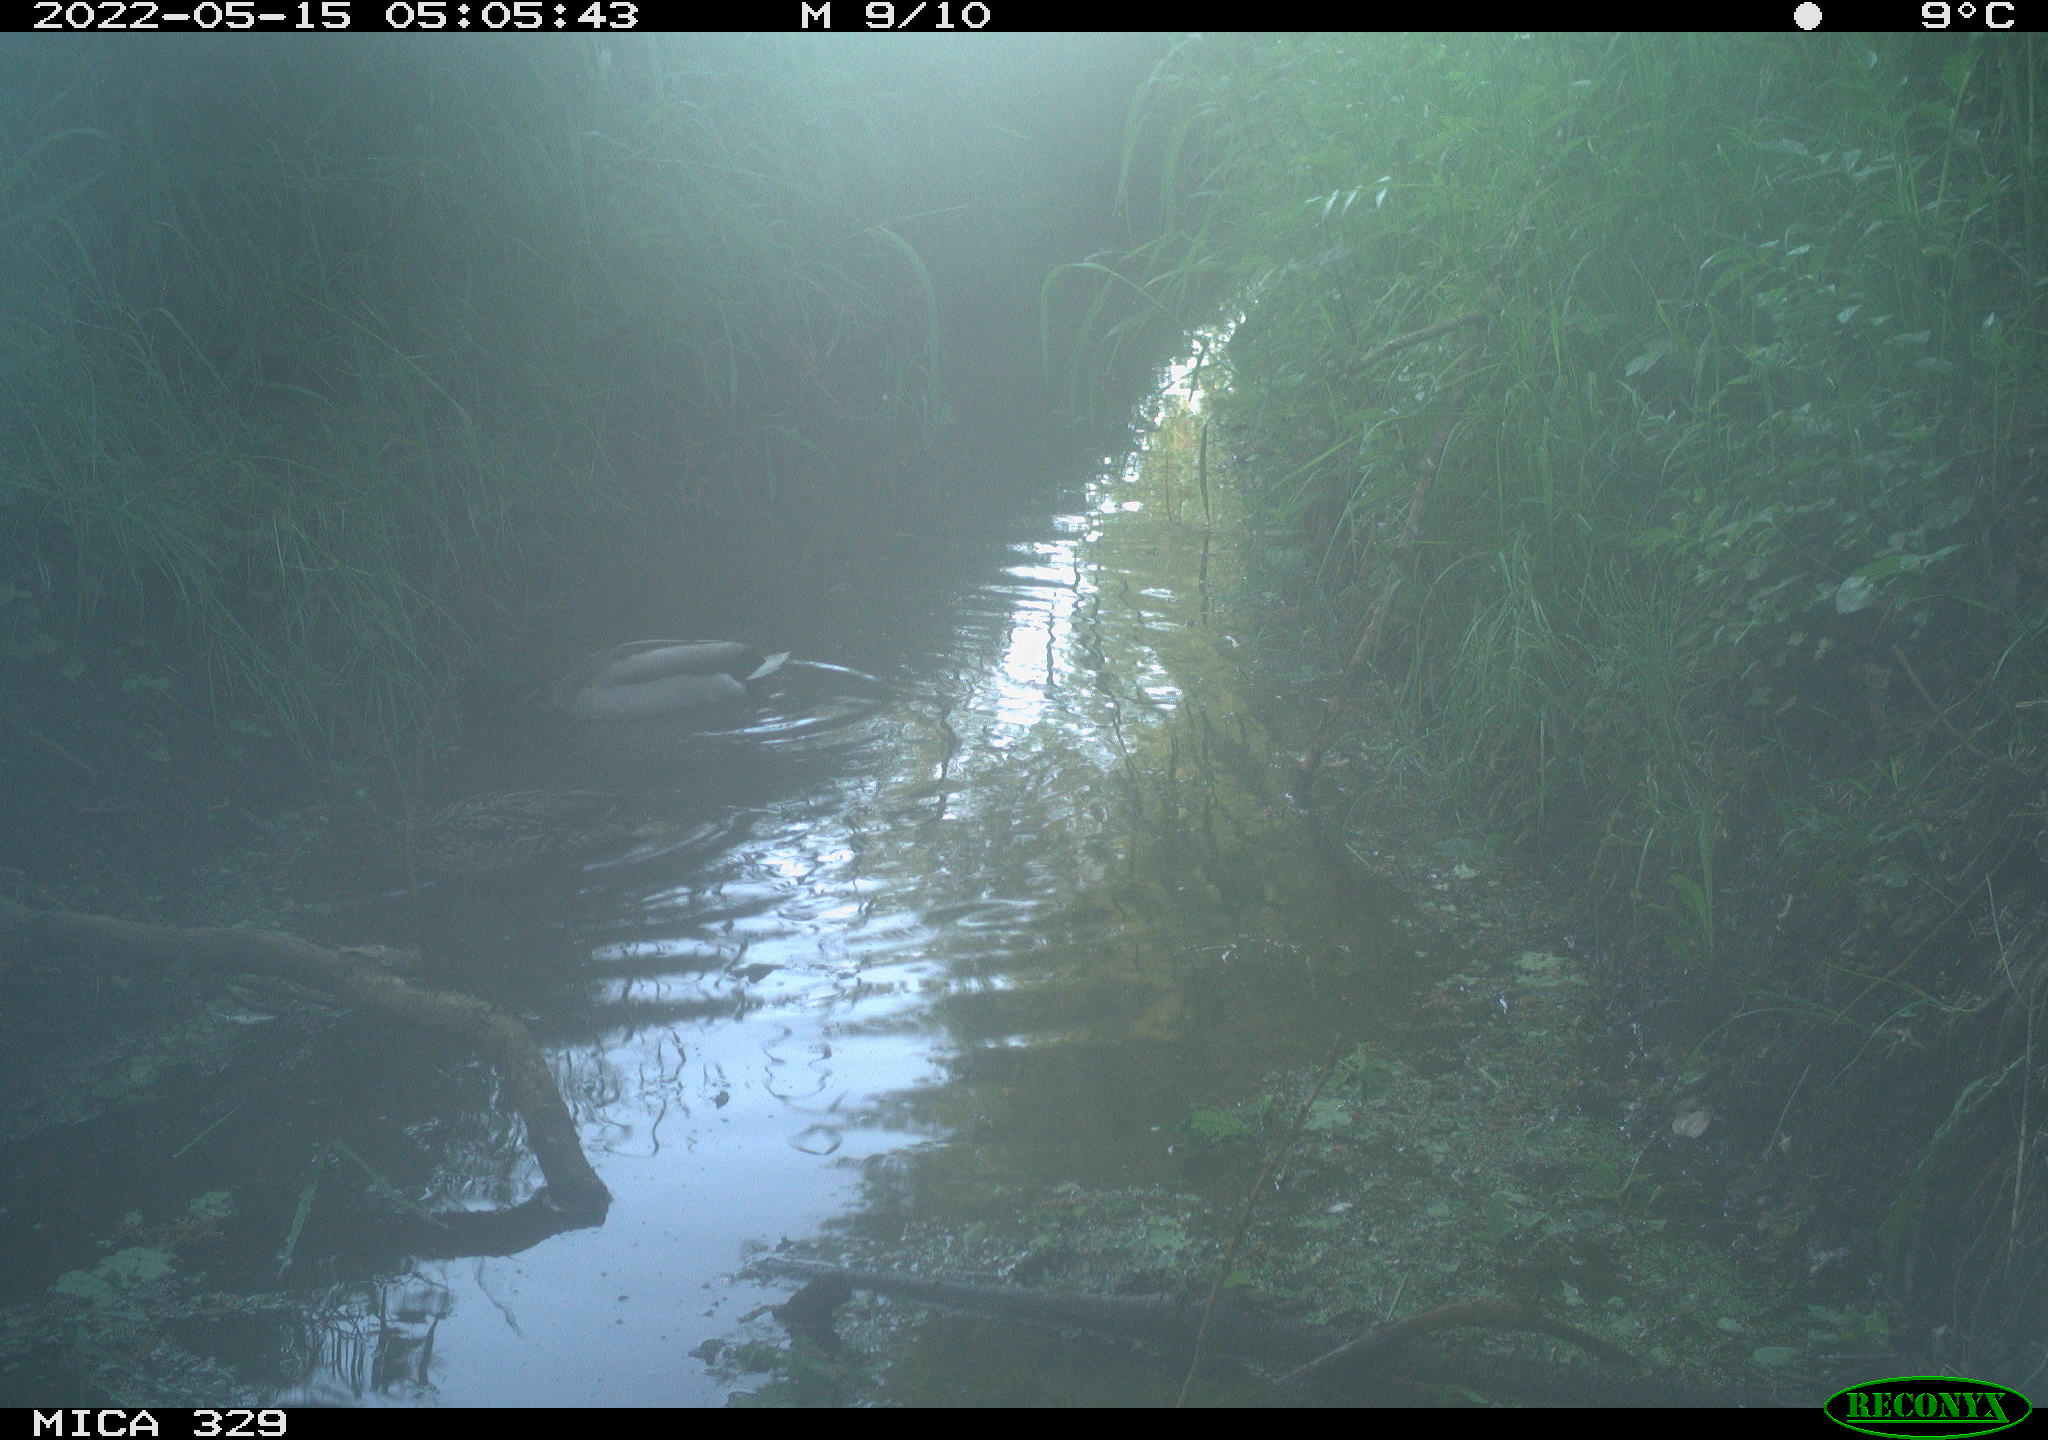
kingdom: Animalia
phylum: Chordata
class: Aves
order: Anseriformes
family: Anatidae
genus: Anas
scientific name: Anas platyrhynchos
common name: Mallard
